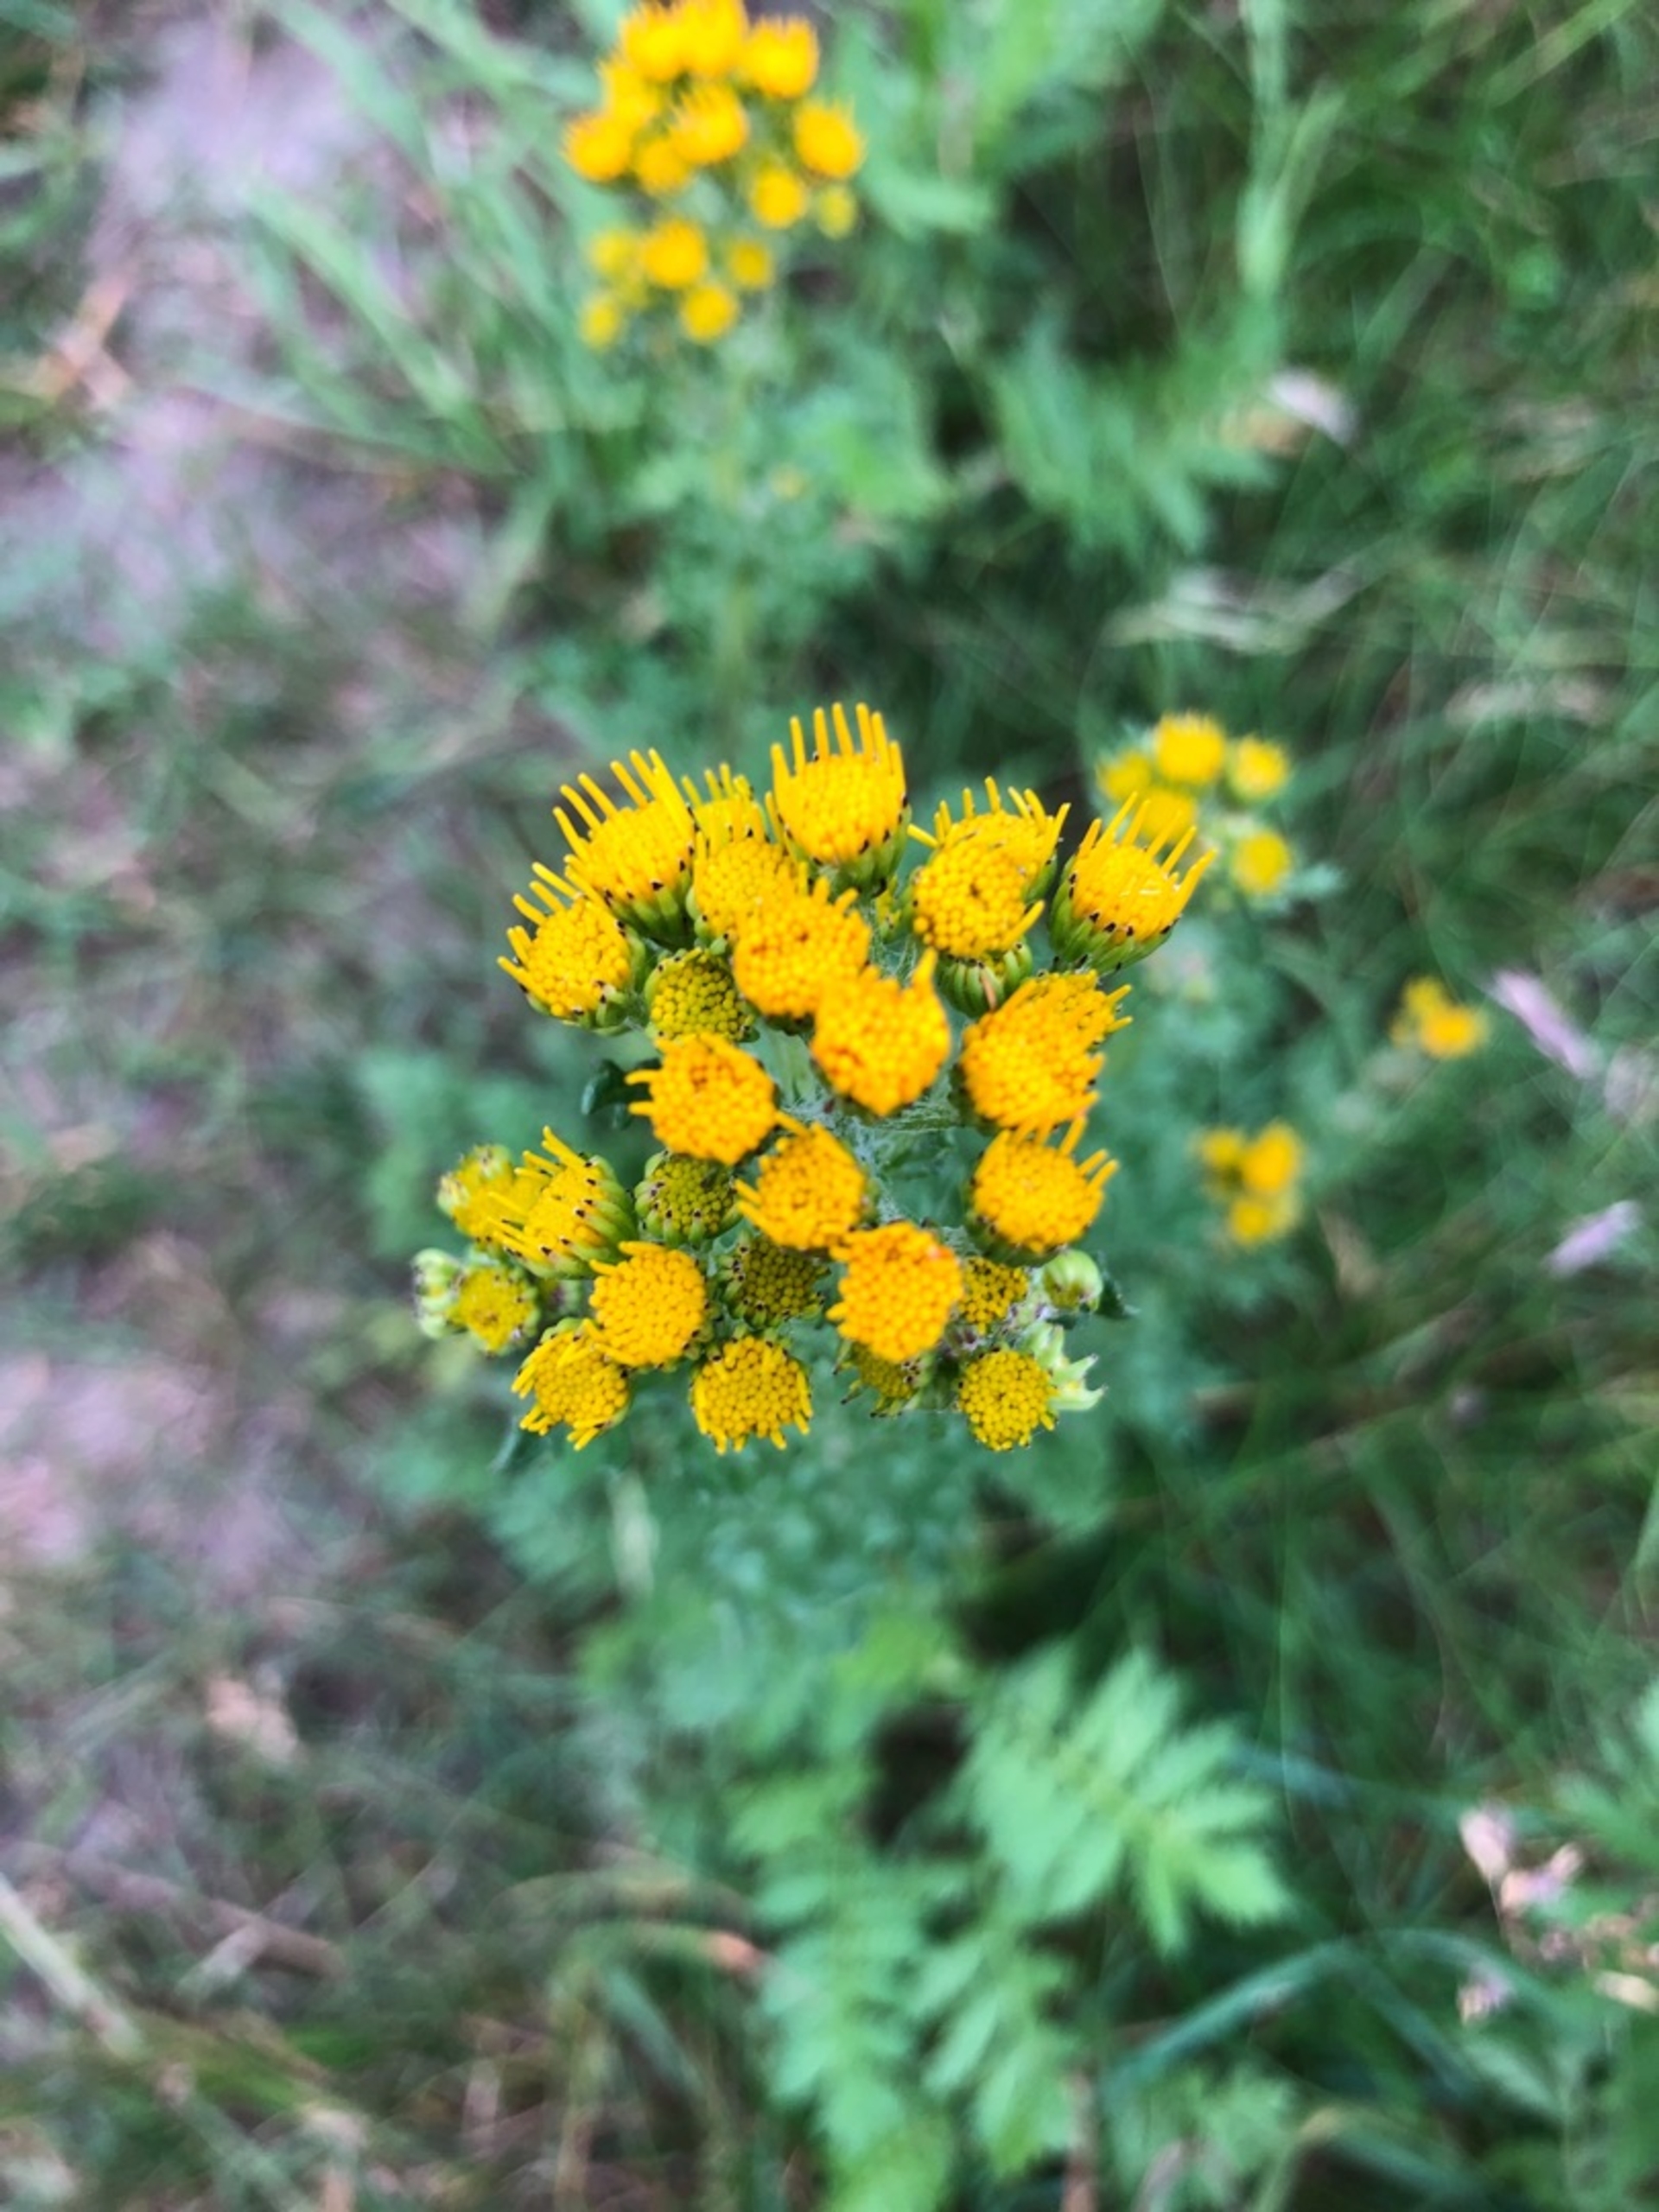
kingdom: Plantae
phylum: Tracheophyta
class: Magnoliopsida
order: Asterales
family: Asteraceae
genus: Jacobaea
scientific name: Jacobaea vulgaris
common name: Eng-brandbæger
